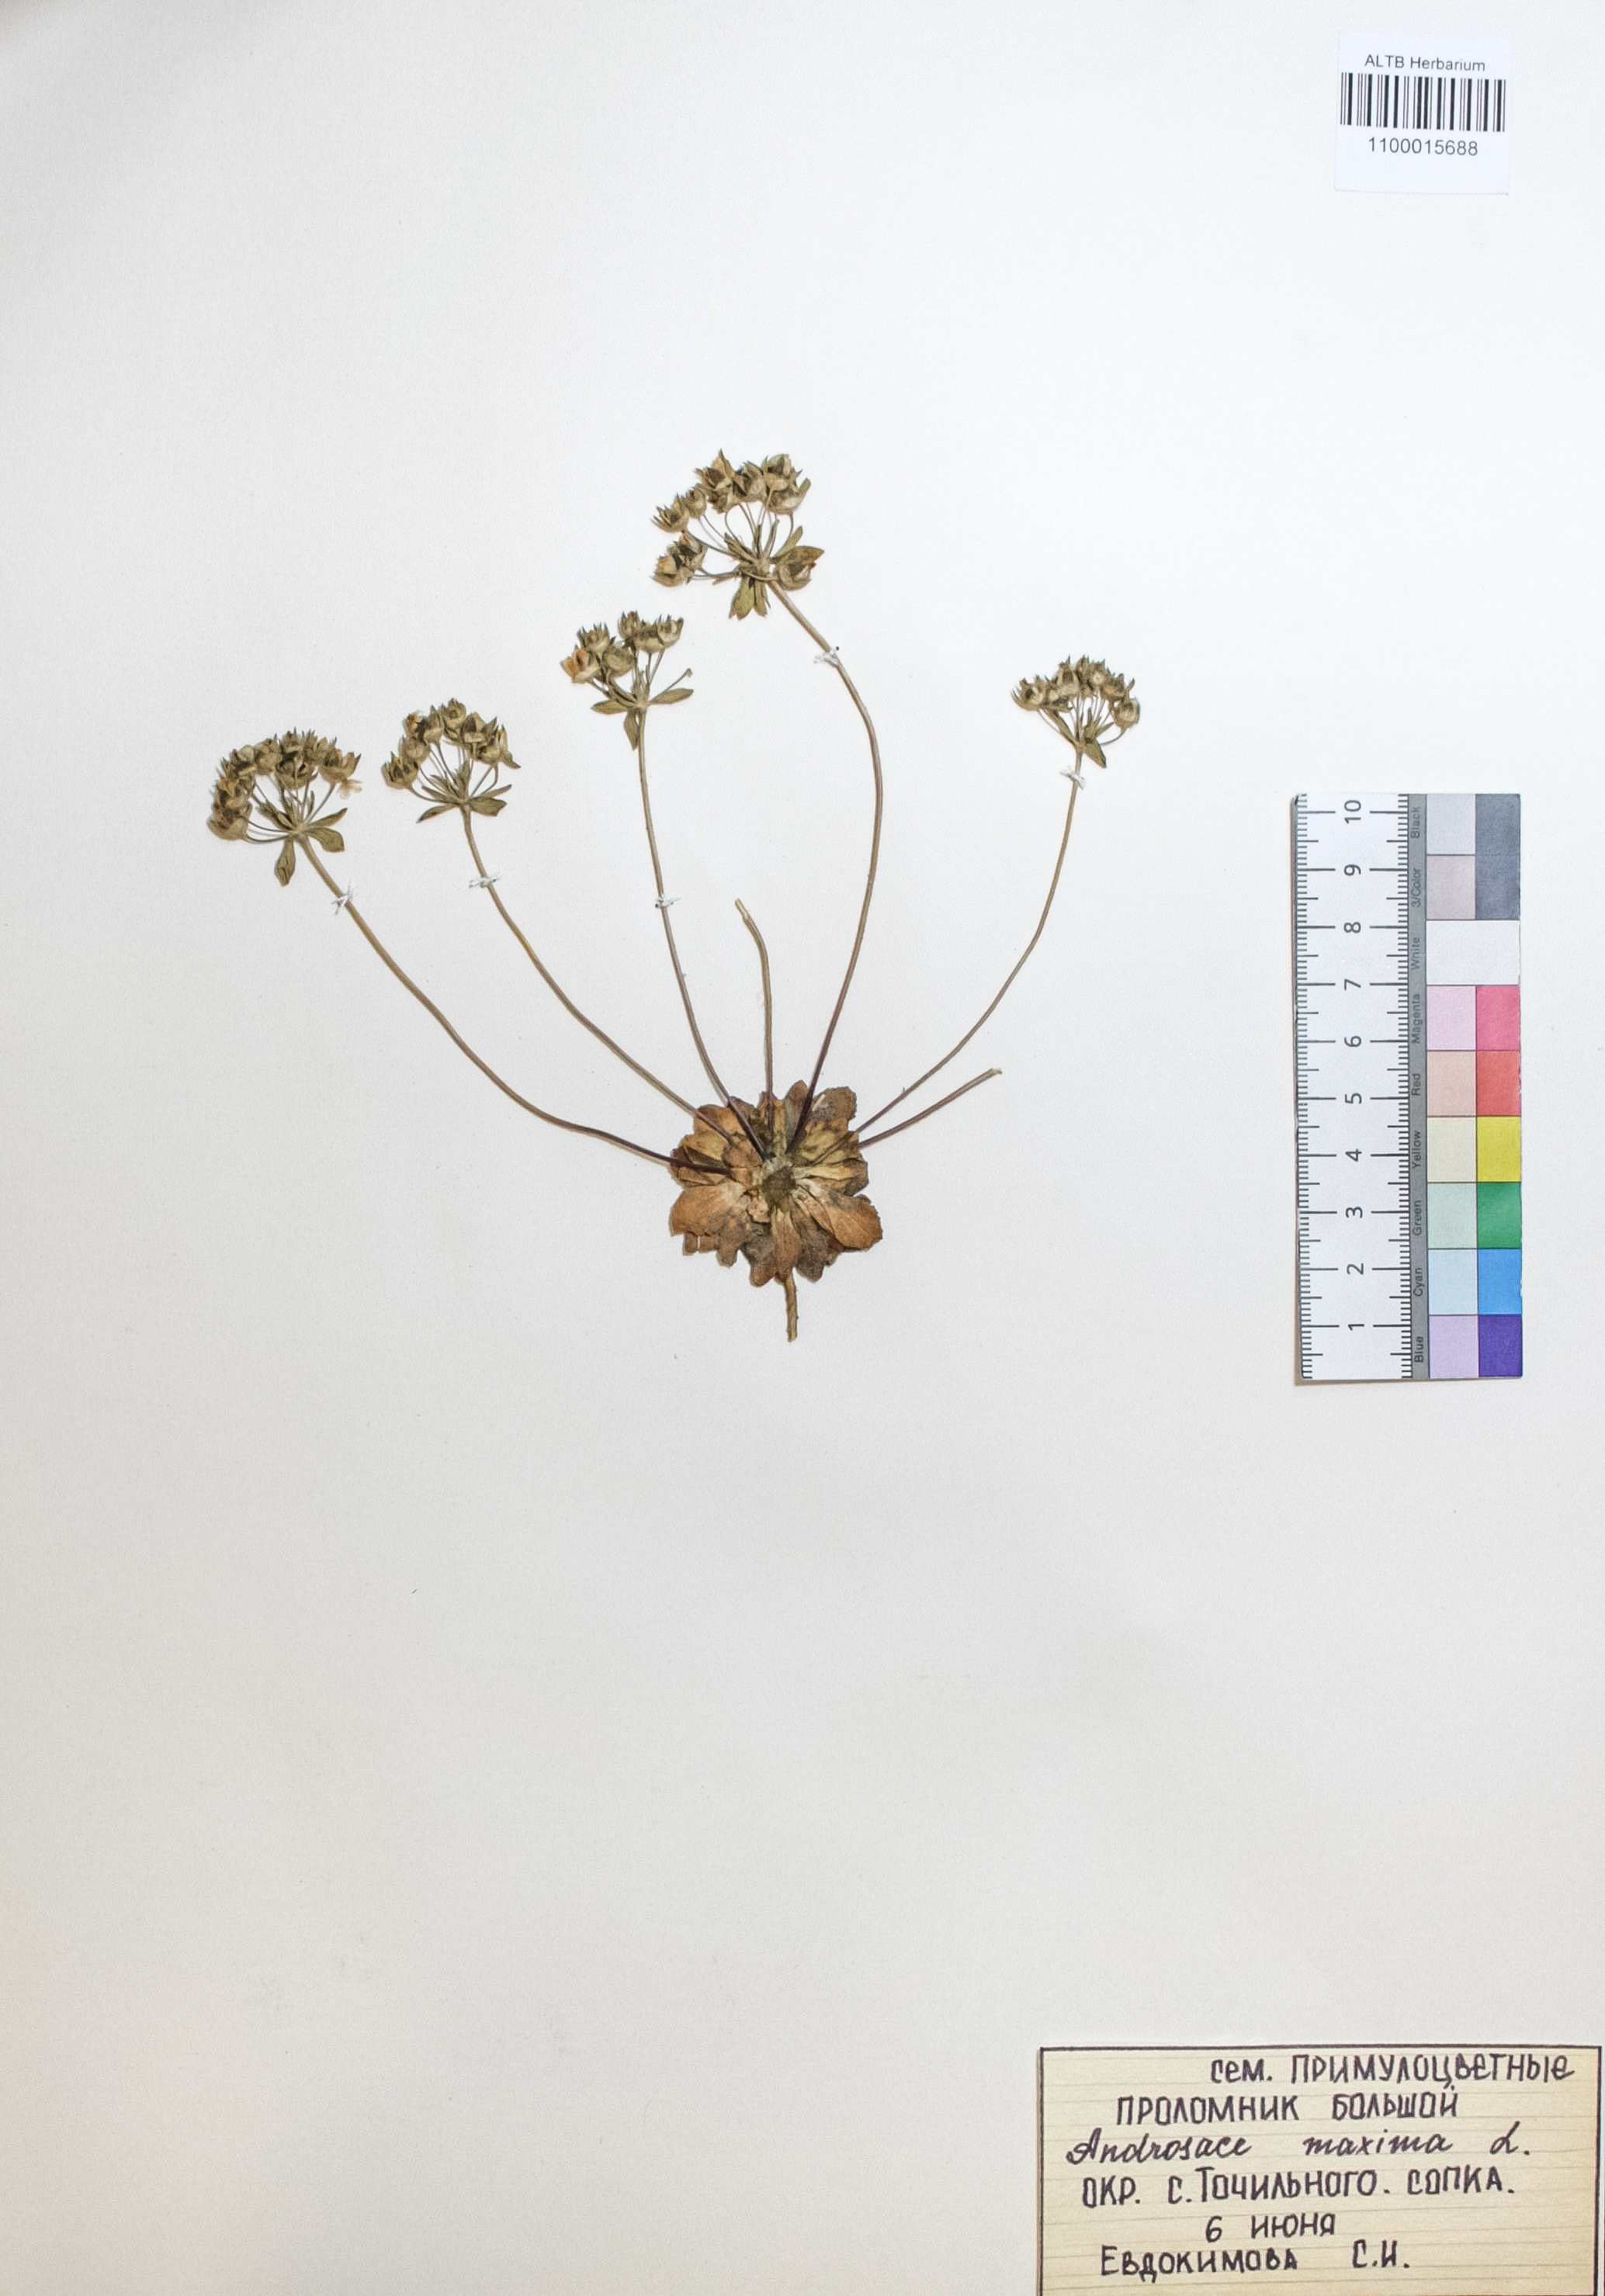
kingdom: Plantae
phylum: Tracheophyta
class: Magnoliopsida
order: Ericales
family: Primulaceae
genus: Androsace
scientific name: Androsace maxima
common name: Annual androsace
